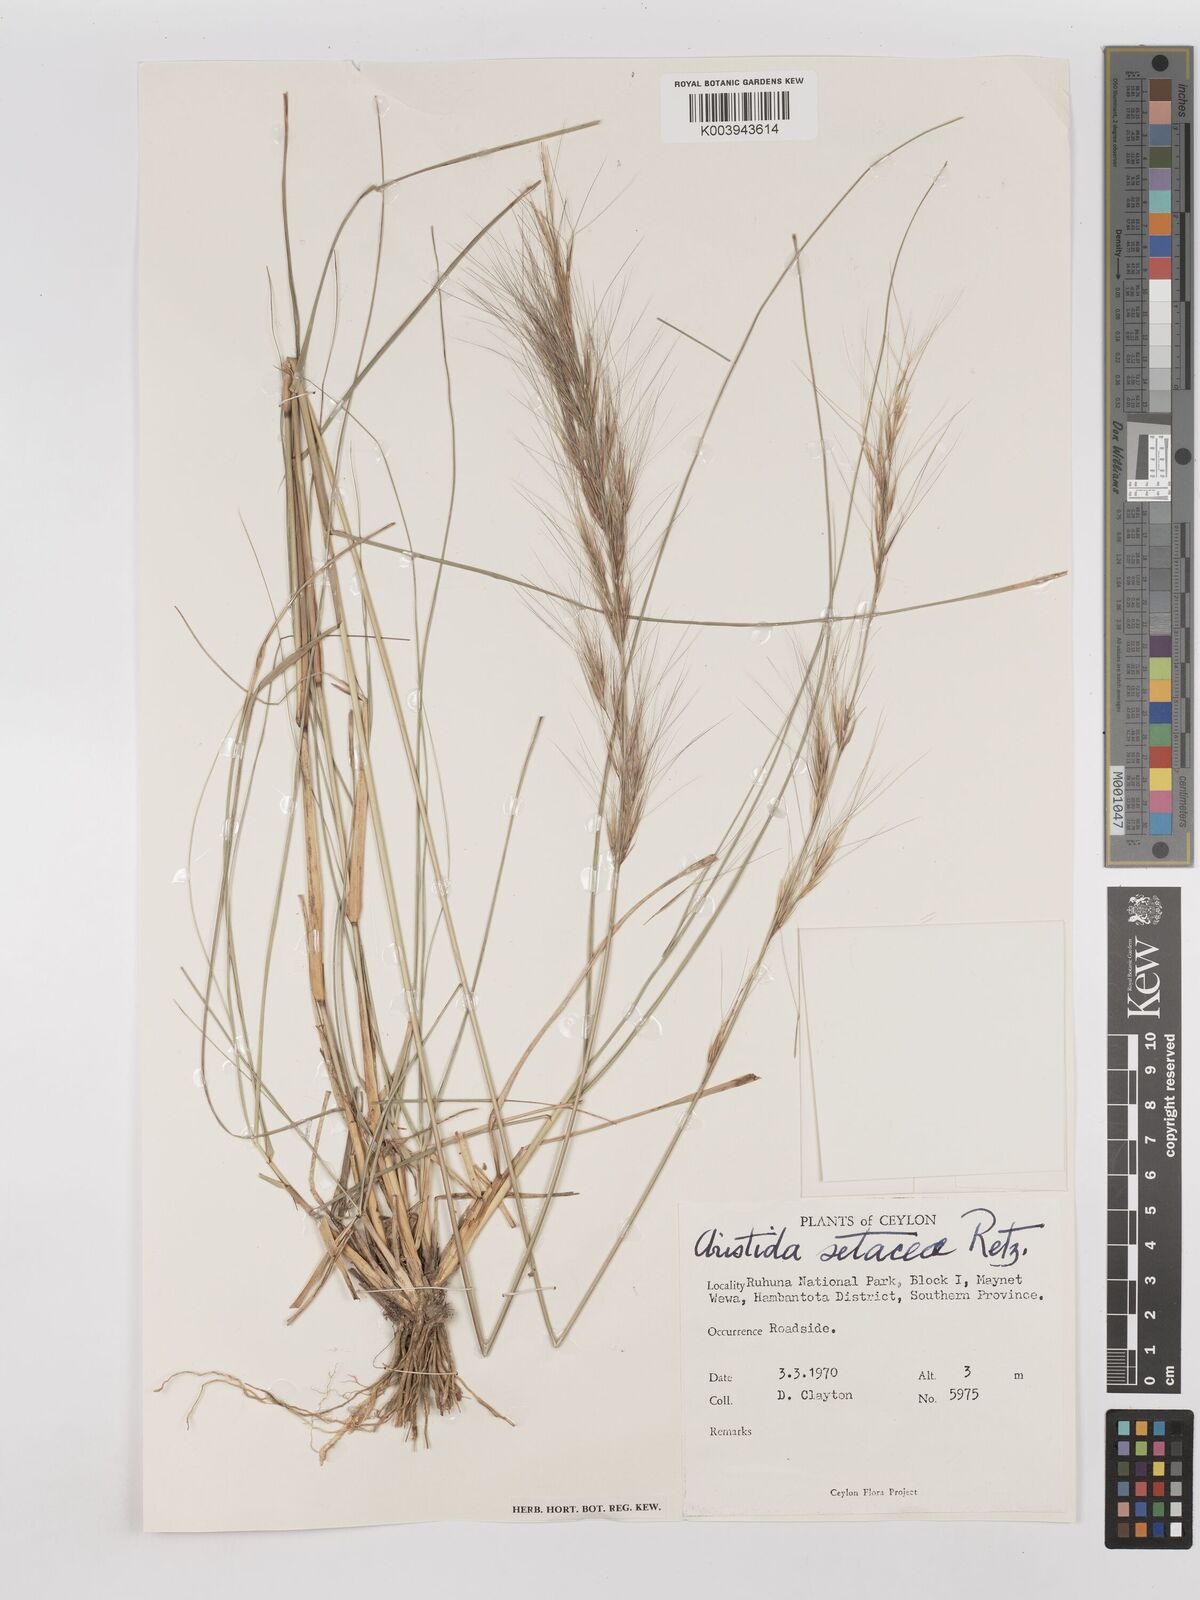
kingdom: Plantae
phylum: Tracheophyta
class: Liliopsida
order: Poales
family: Poaceae
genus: Aristida
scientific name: Aristida setacea
